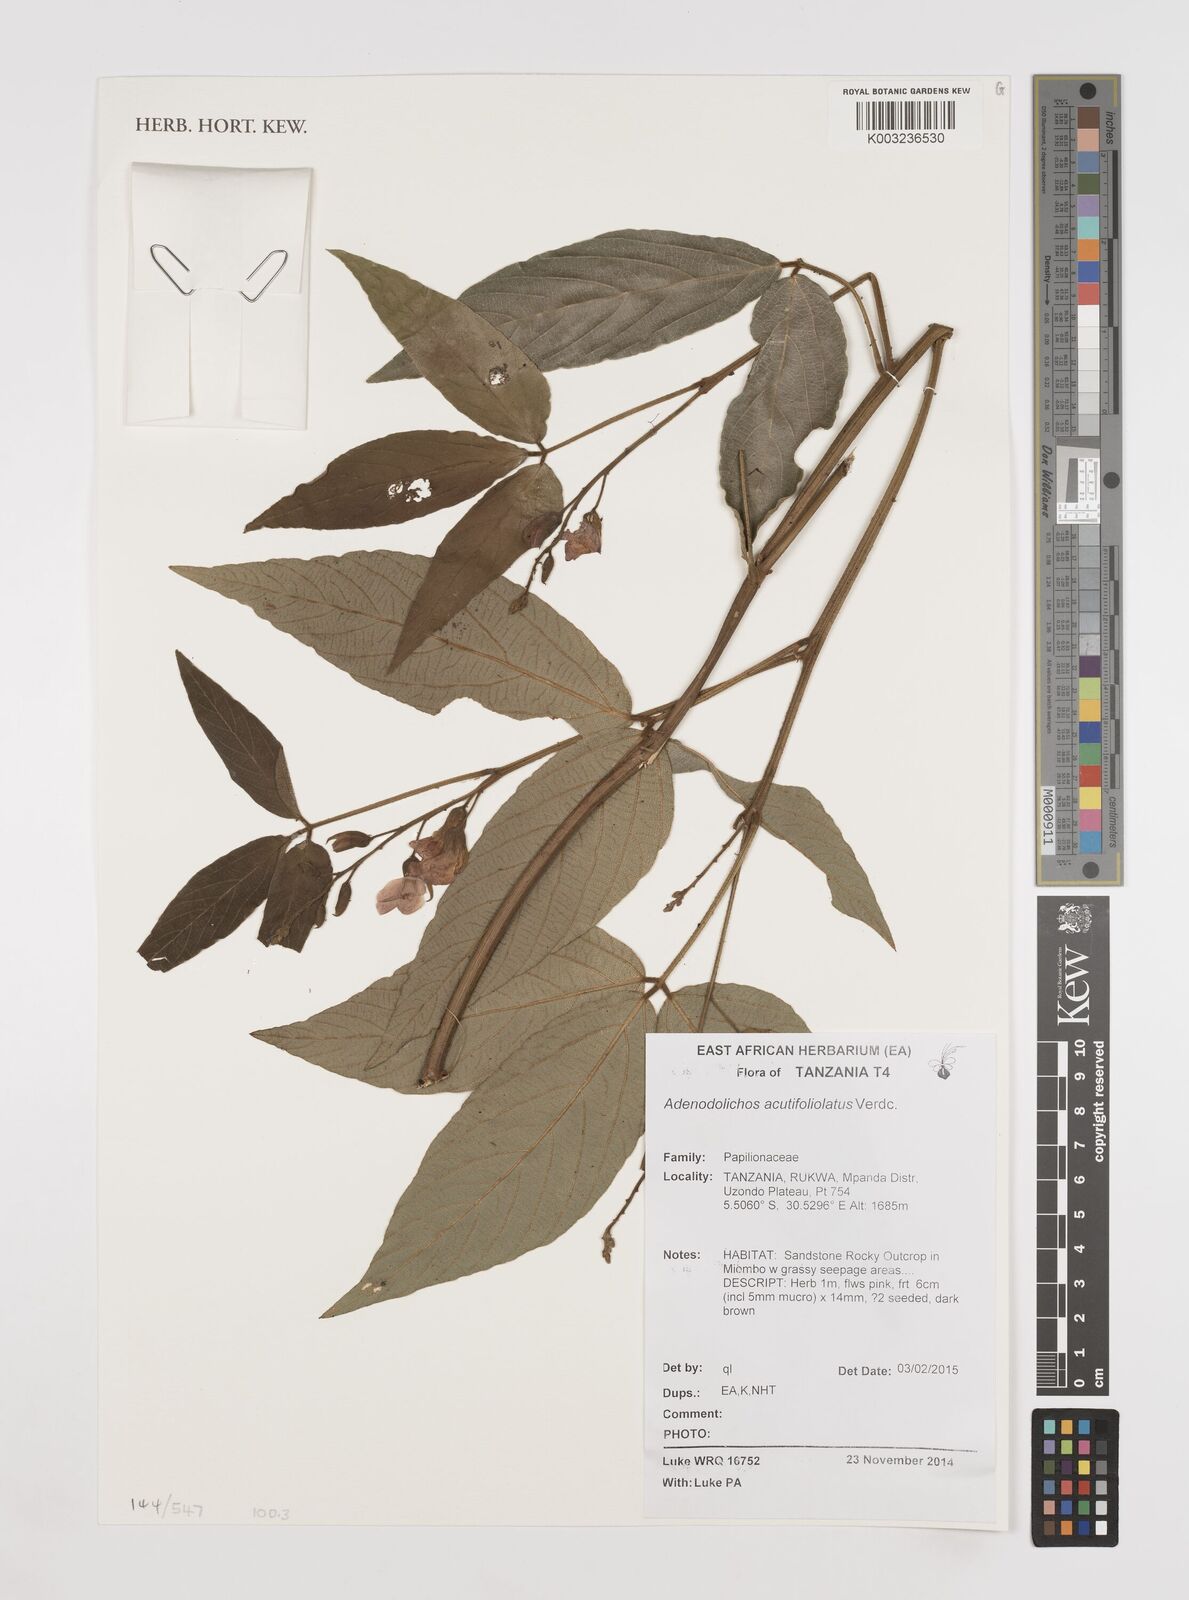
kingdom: Plantae
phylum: Tracheophyta
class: Magnoliopsida
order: Fabales
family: Fabaceae
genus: Adenodolichos
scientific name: Adenodolichos acutifoliolatus
